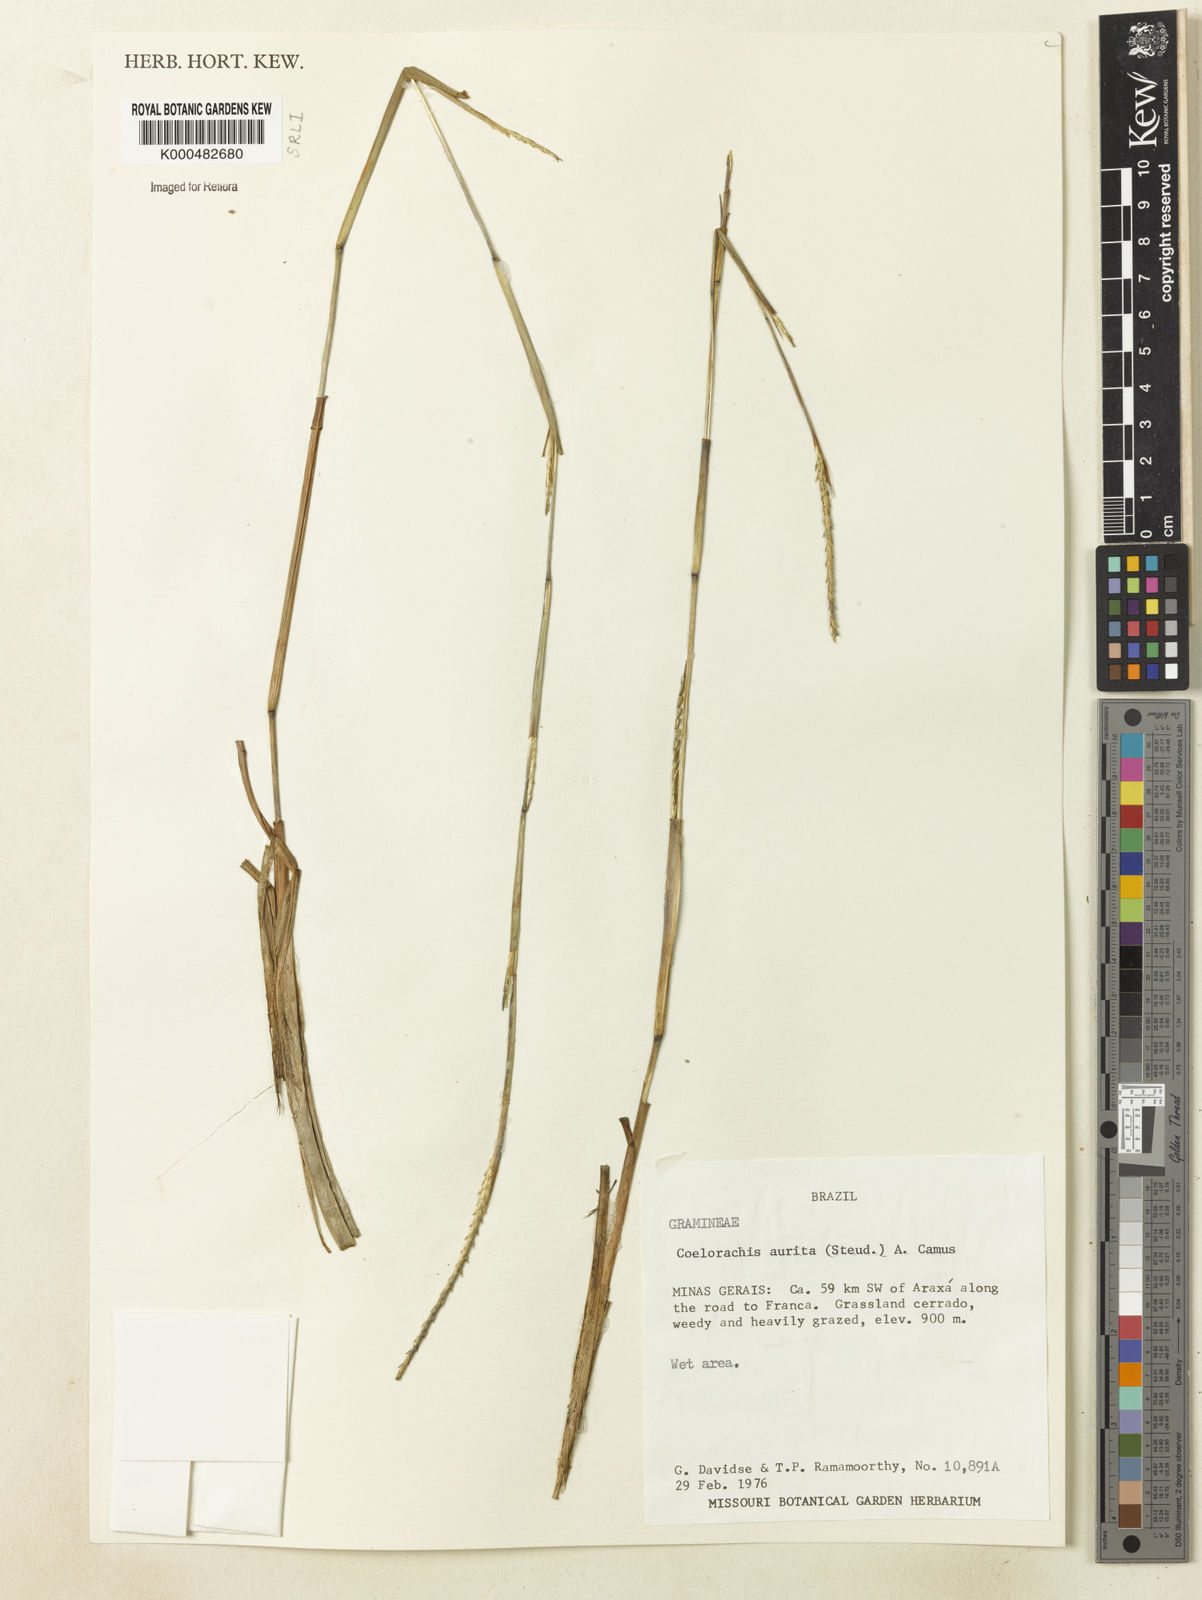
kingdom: Plantae
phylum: Tracheophyta
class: Liliopsida
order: Poales
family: Poaceae
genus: Rottboellia
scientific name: Rottboellia aurita
